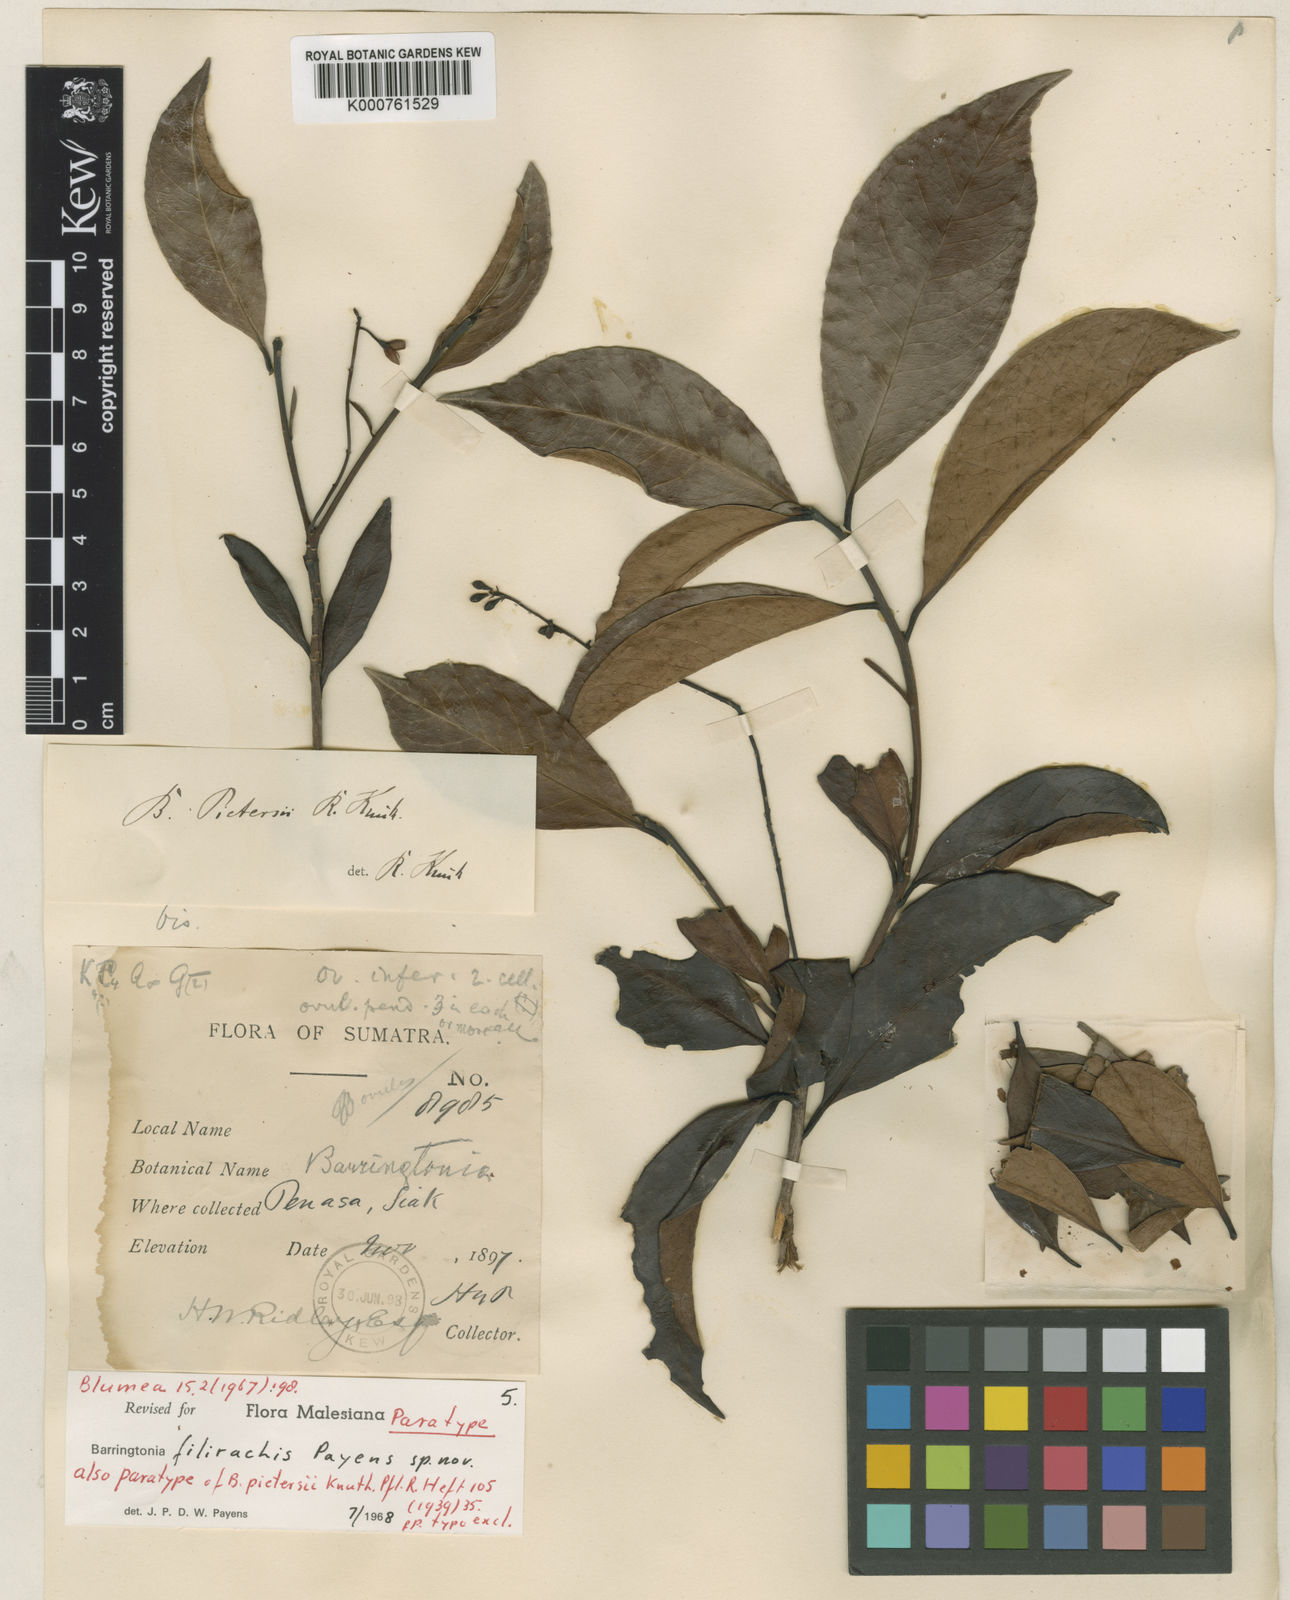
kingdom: Plantae
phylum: Tracheophyta
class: Magnoliopsida
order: Ericales
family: Lecythidaceae
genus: Barringtonia
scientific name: Barringtonia filirachis
